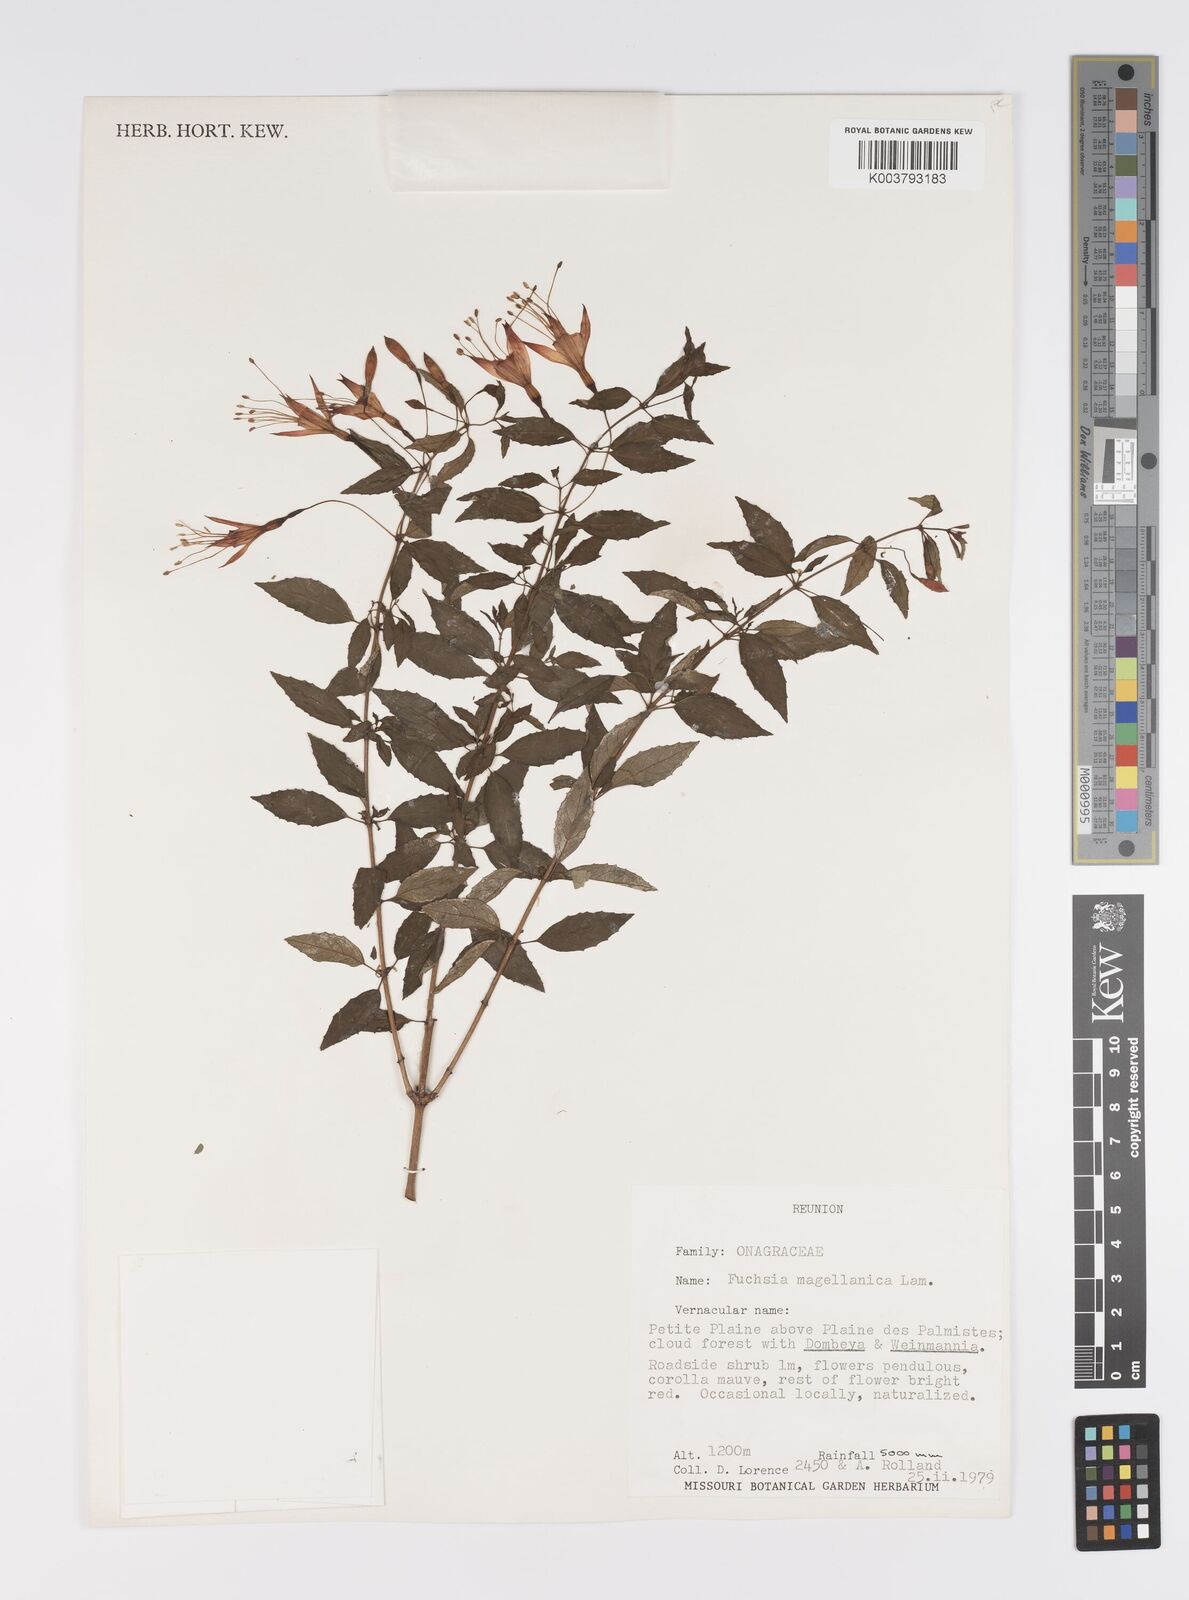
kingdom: Plantae
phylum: Tracheophyta
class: Magnoliopsida
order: Myrtales
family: Onagraceae
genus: Fuchsia
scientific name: Fuchsia
